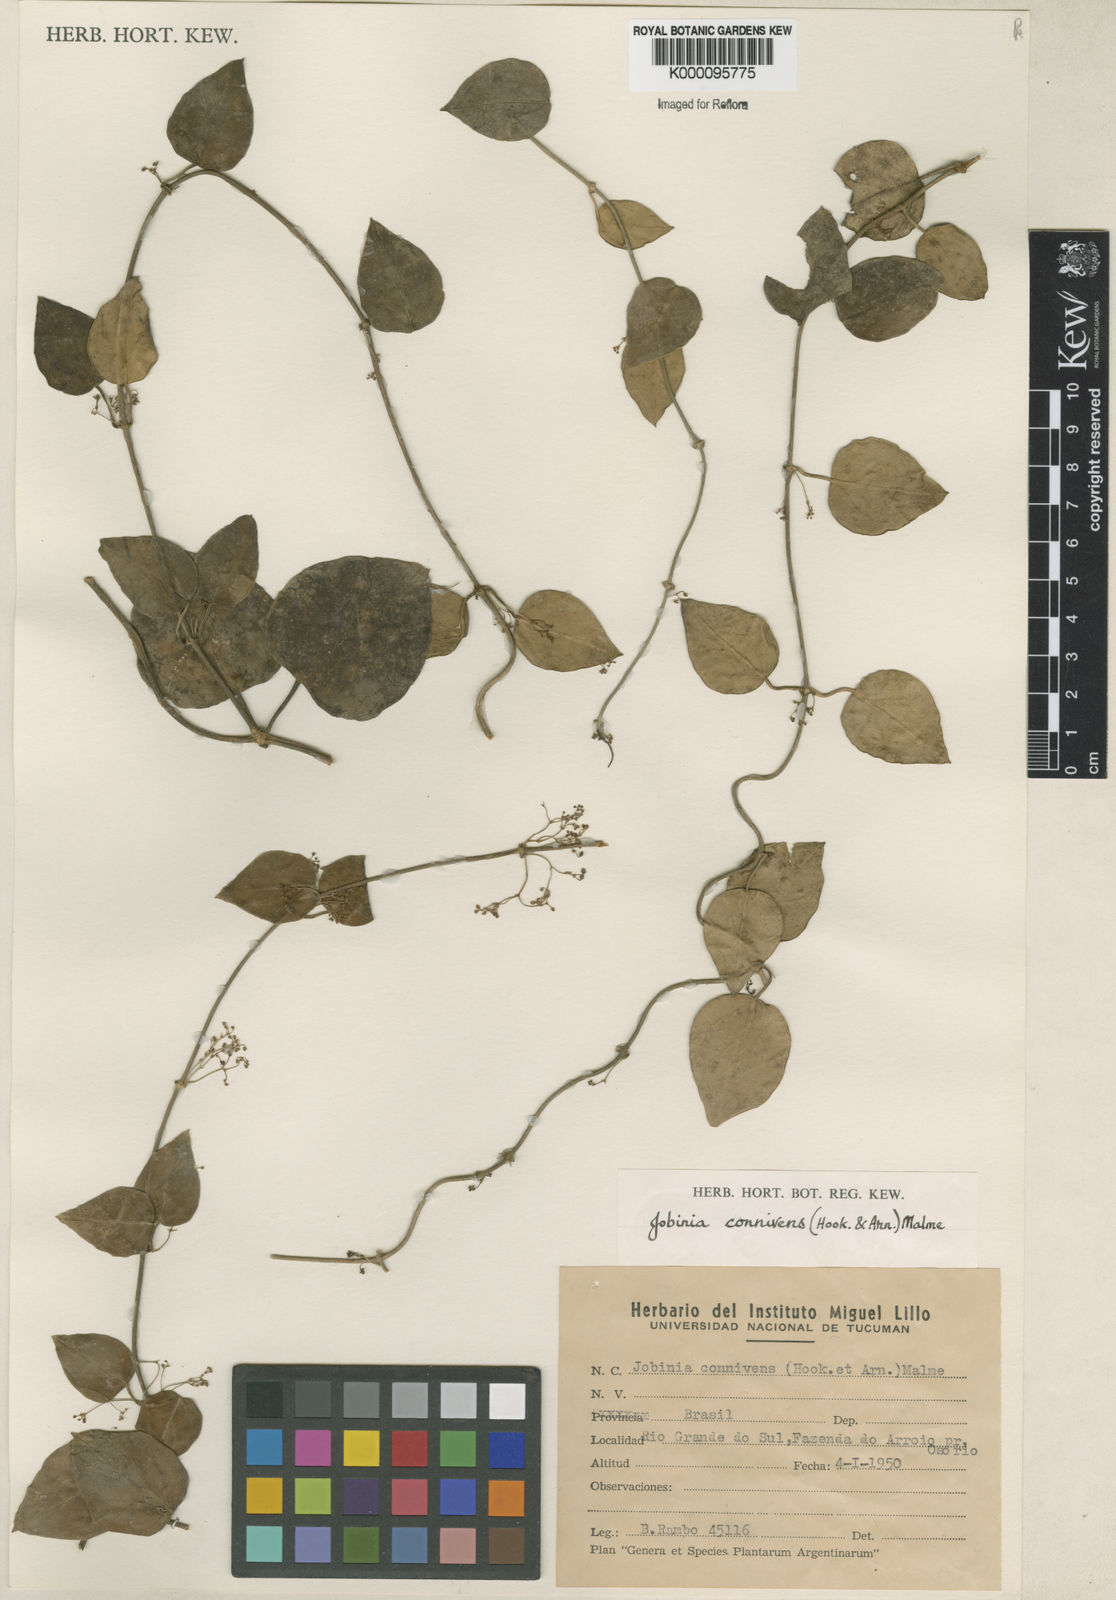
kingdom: Plantae
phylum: Tracheophyta
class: Magnoliopsida
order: Gentianales
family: Apocynaceae
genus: Jobinia
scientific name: Jobinia connivens
